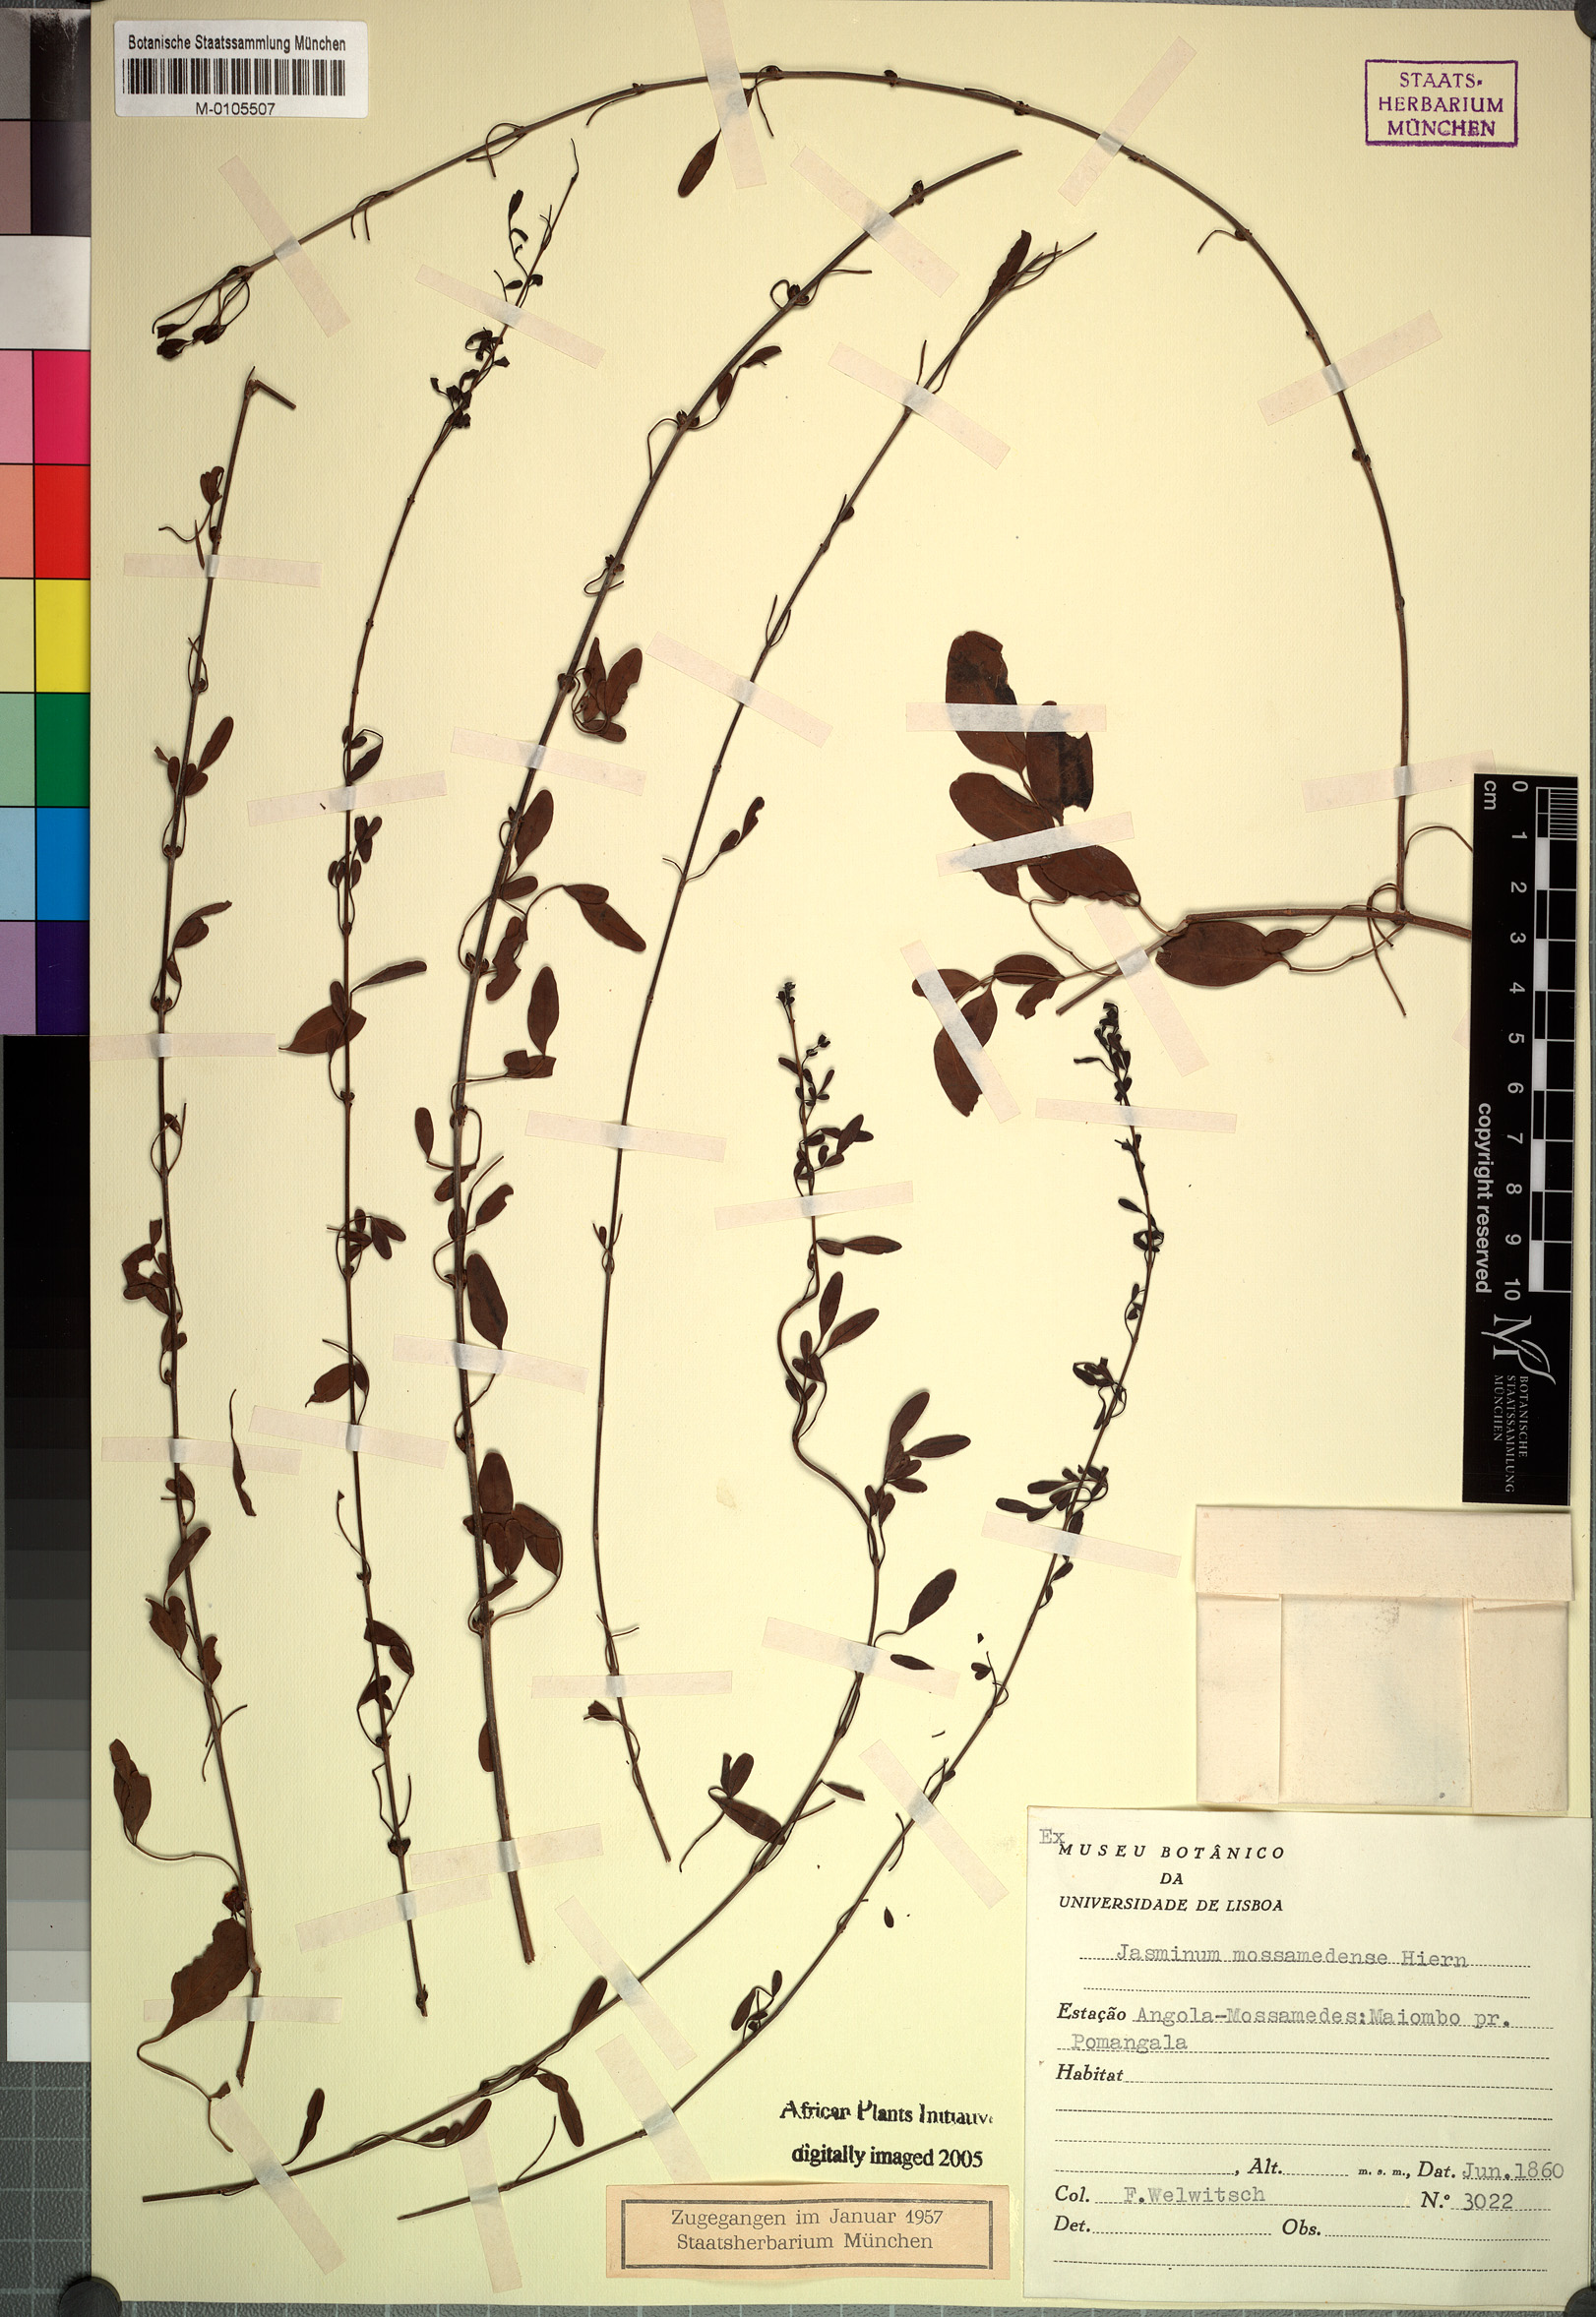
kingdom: Plantae
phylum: Tracheophyta
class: Magnoliopsida
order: Lamiales
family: Oleaceae
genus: Jasminum
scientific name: Jasminum mossamedense
